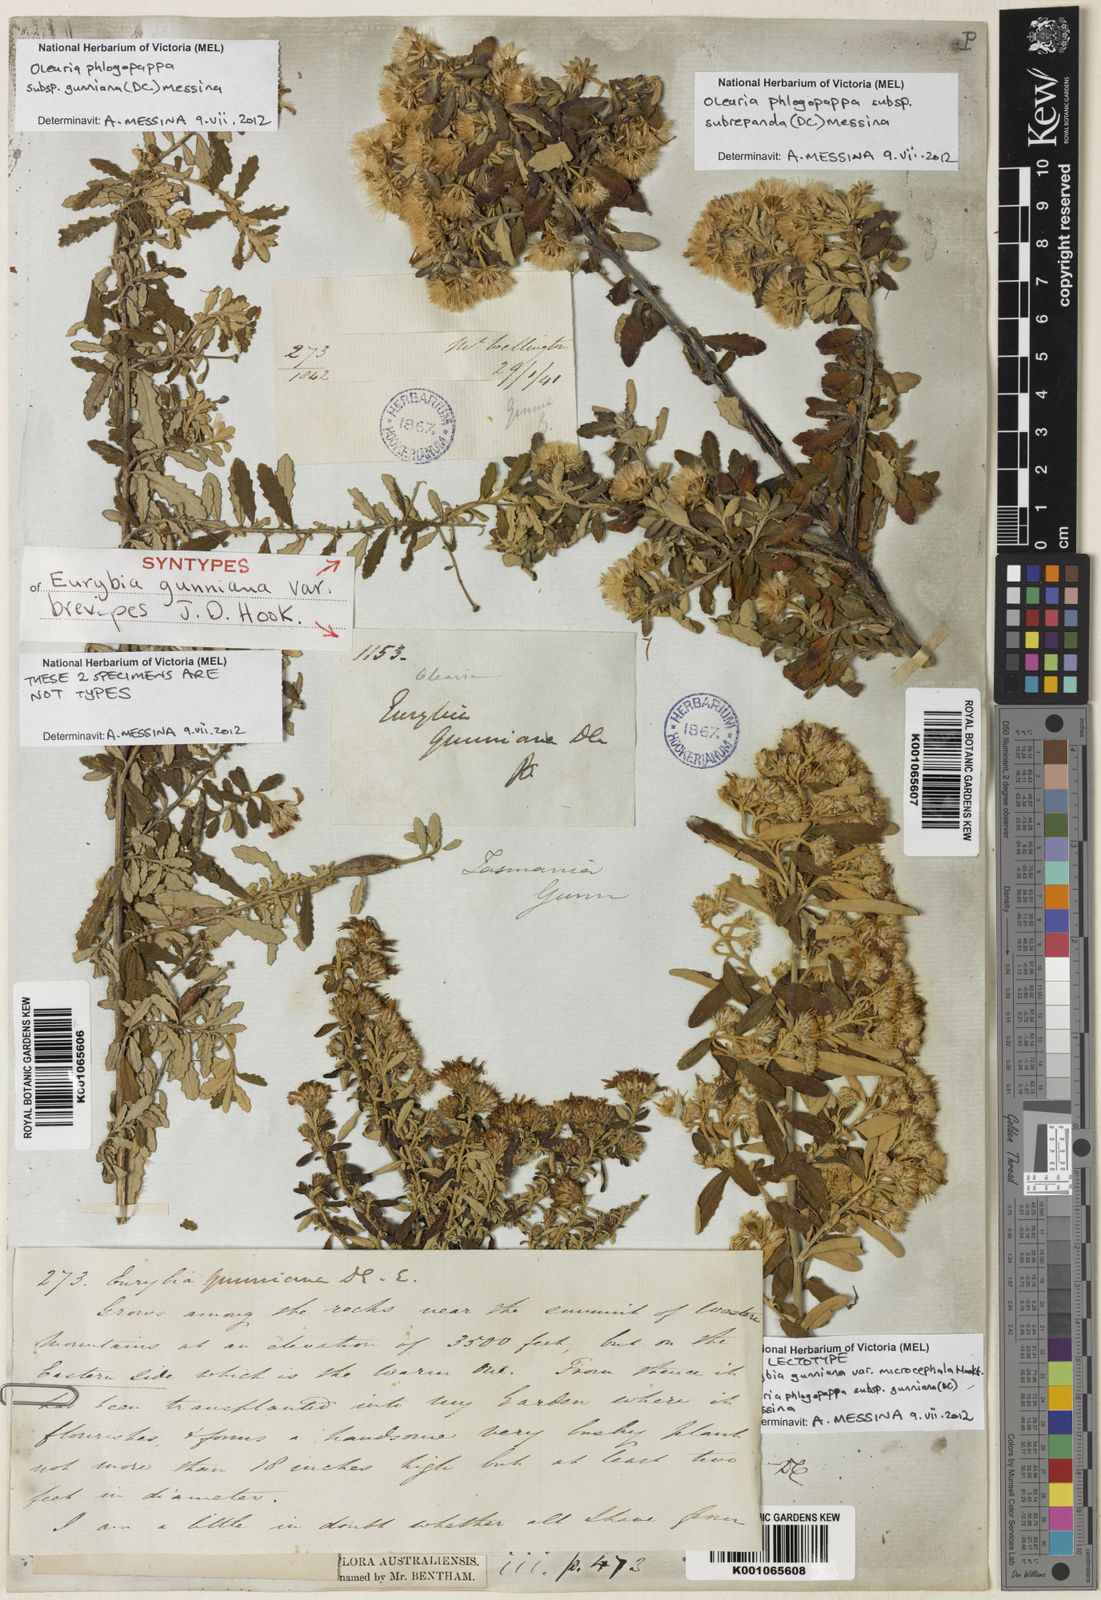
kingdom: Plantae
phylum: Tracheophyta
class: Magnoliopsida
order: Asterales
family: Asteraceae
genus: Olearia
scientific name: Olearia phlogopappa
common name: Alpine daisybush
